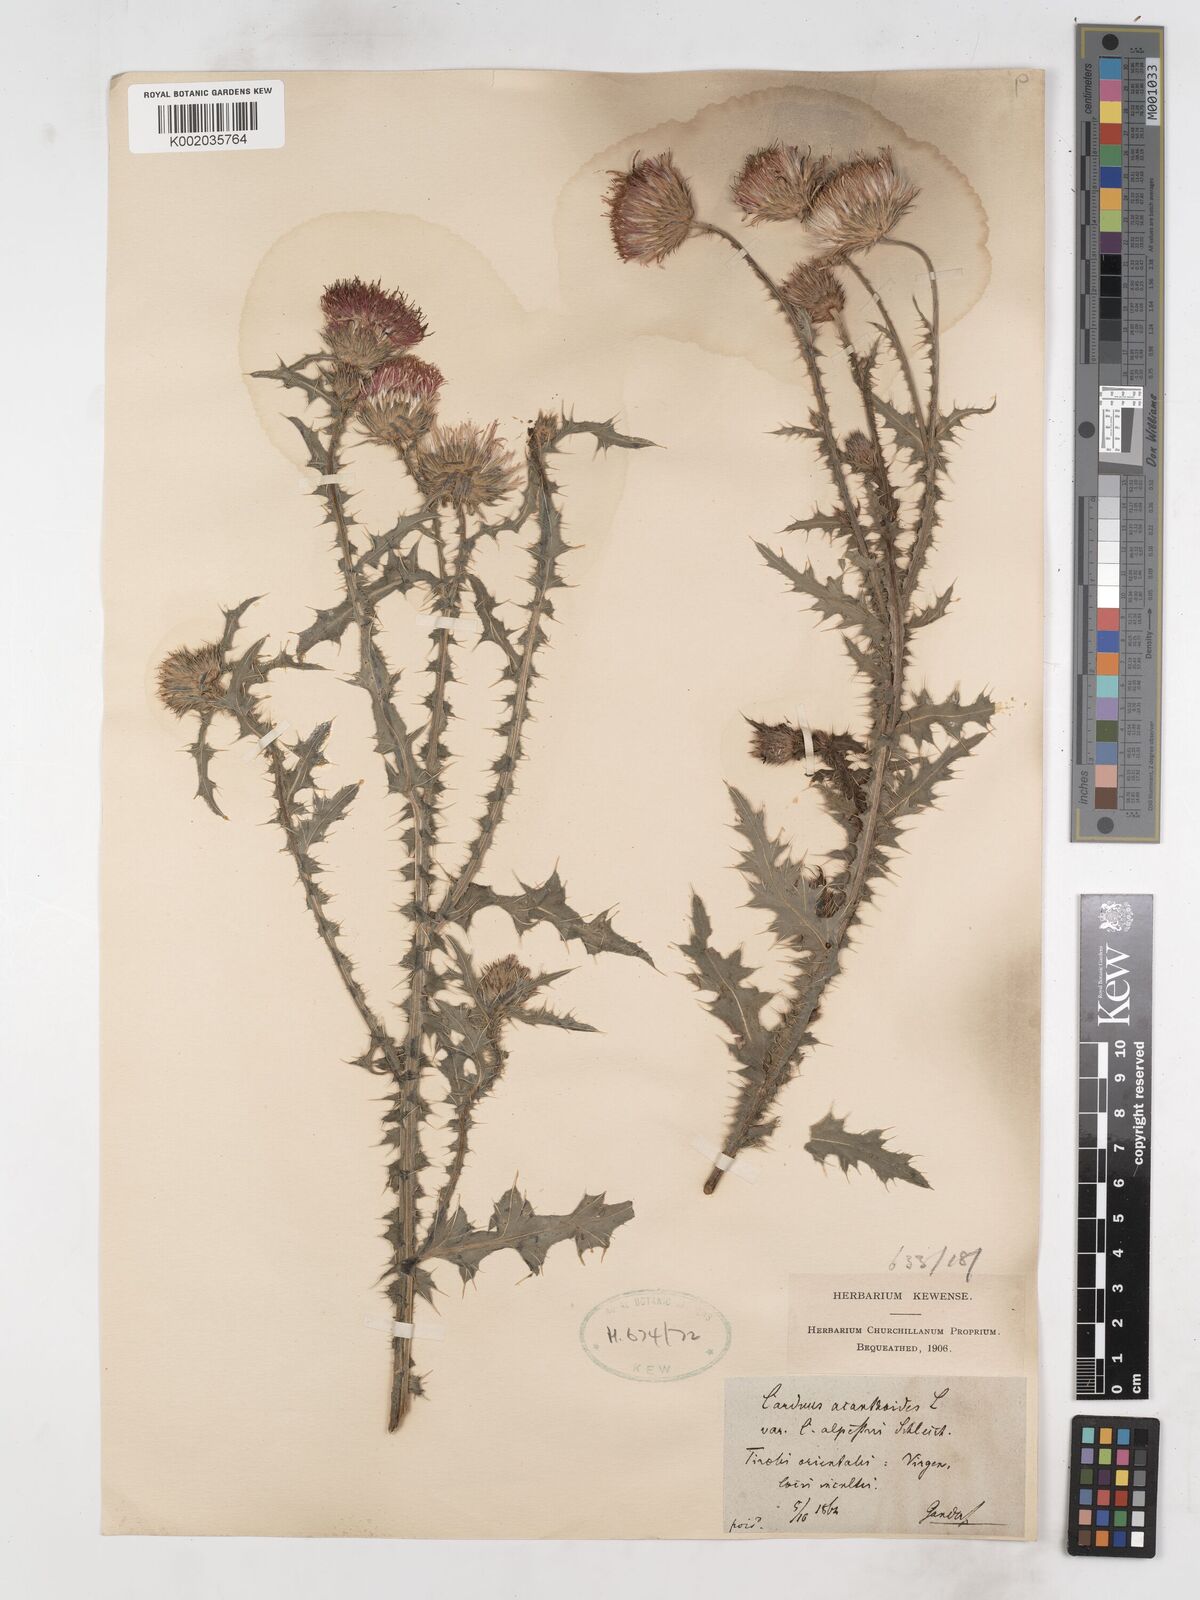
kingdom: Plantae
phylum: Tracheophyta
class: Magnoliopsida
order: Asterales
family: Asteraceae
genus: Carduus
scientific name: Carduus acanthoides
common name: Plumeless thistle
